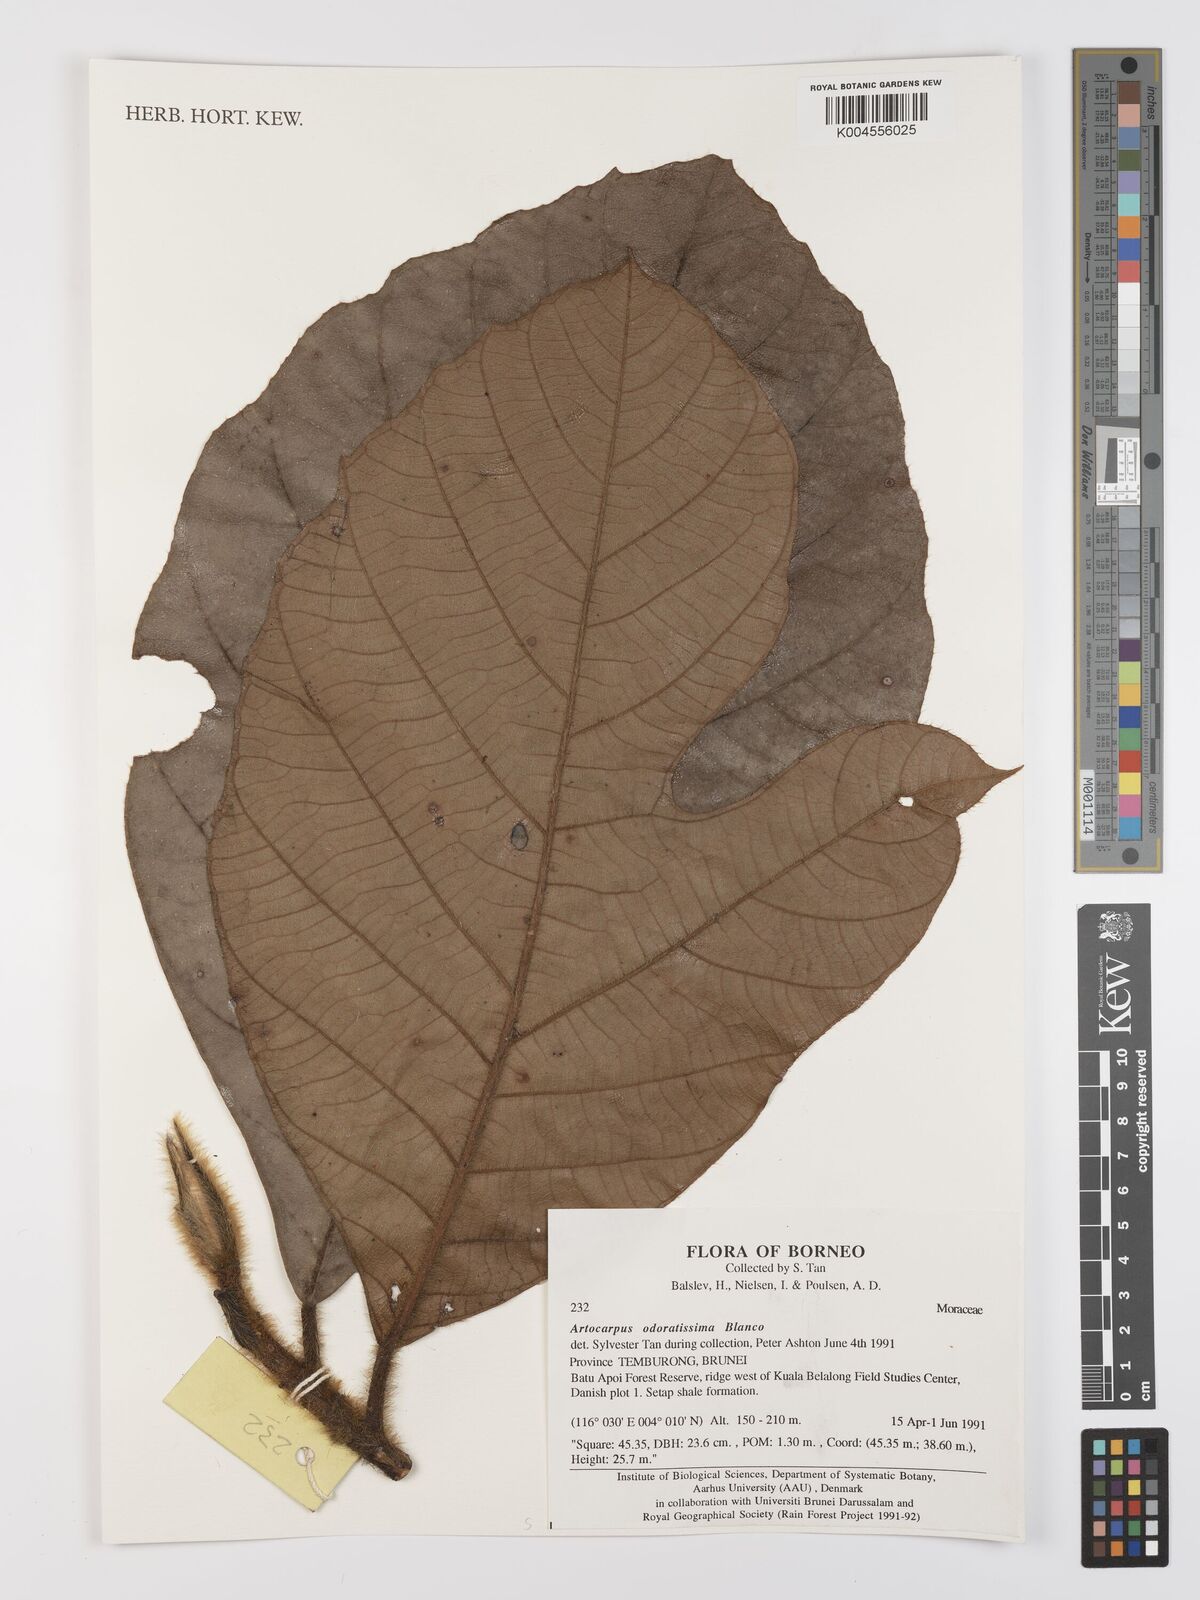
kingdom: Plantae
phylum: Tracheophyta
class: Magnoliopsida
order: Rosales
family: Moraceae
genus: Artocarpus
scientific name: Artocarpus odoratissimus
